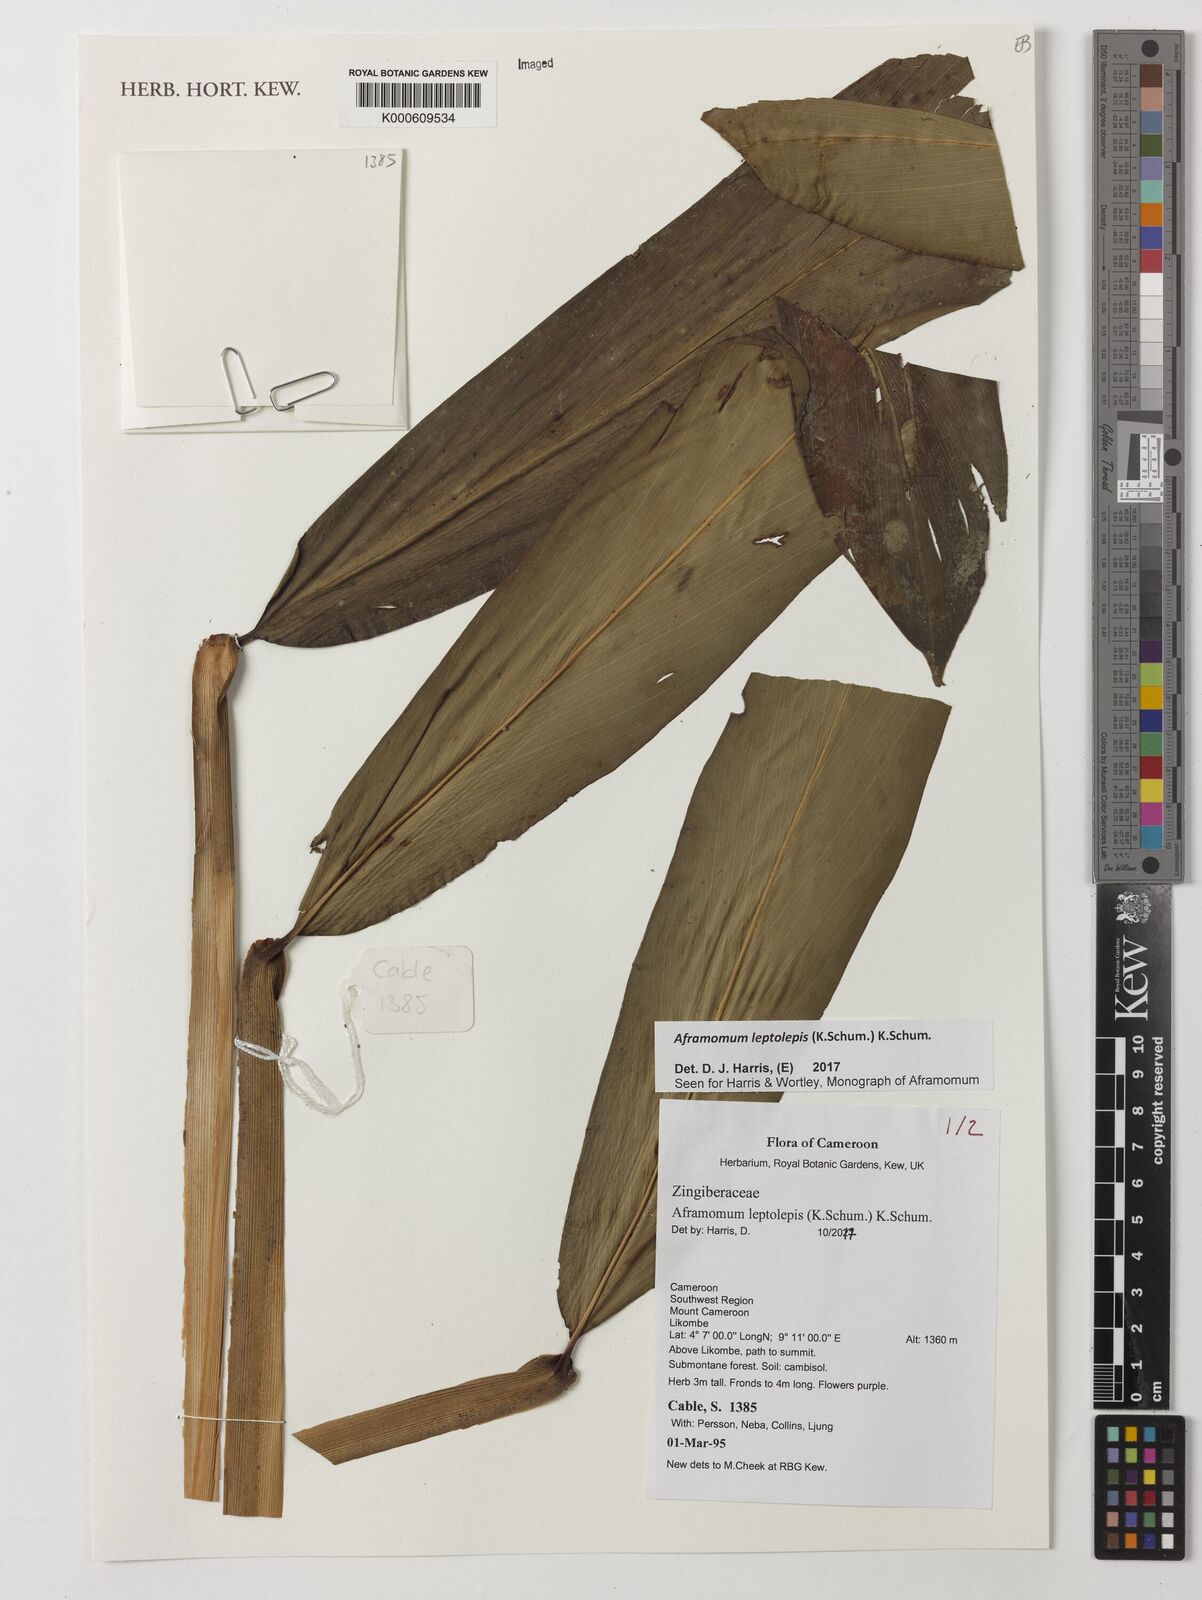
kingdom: Plantae
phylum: Tracheophyta
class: Liliopsida
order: Zingiberales
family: Zingiberaceae
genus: Aframomum
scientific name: Aframomum leptolepis
